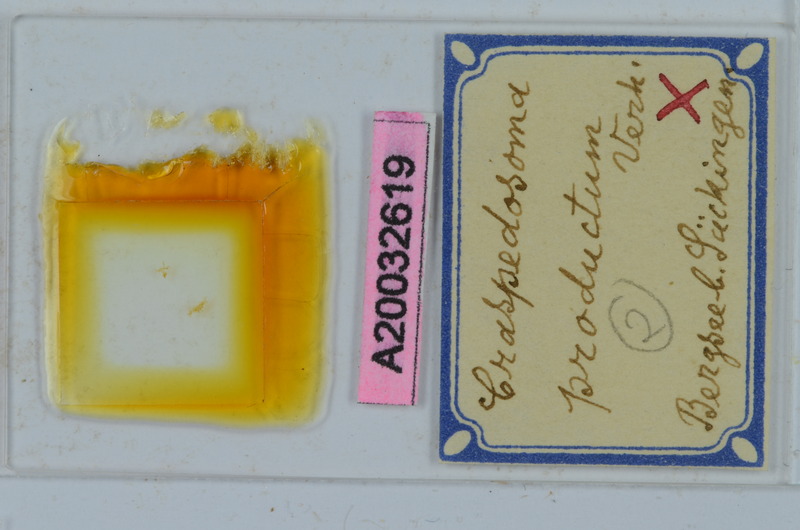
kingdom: Animalia
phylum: Arthropoda
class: Diplopoda
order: Chordeumatida
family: Craspedosomatidae
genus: Craspedosoma
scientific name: Craspedosoma productum
